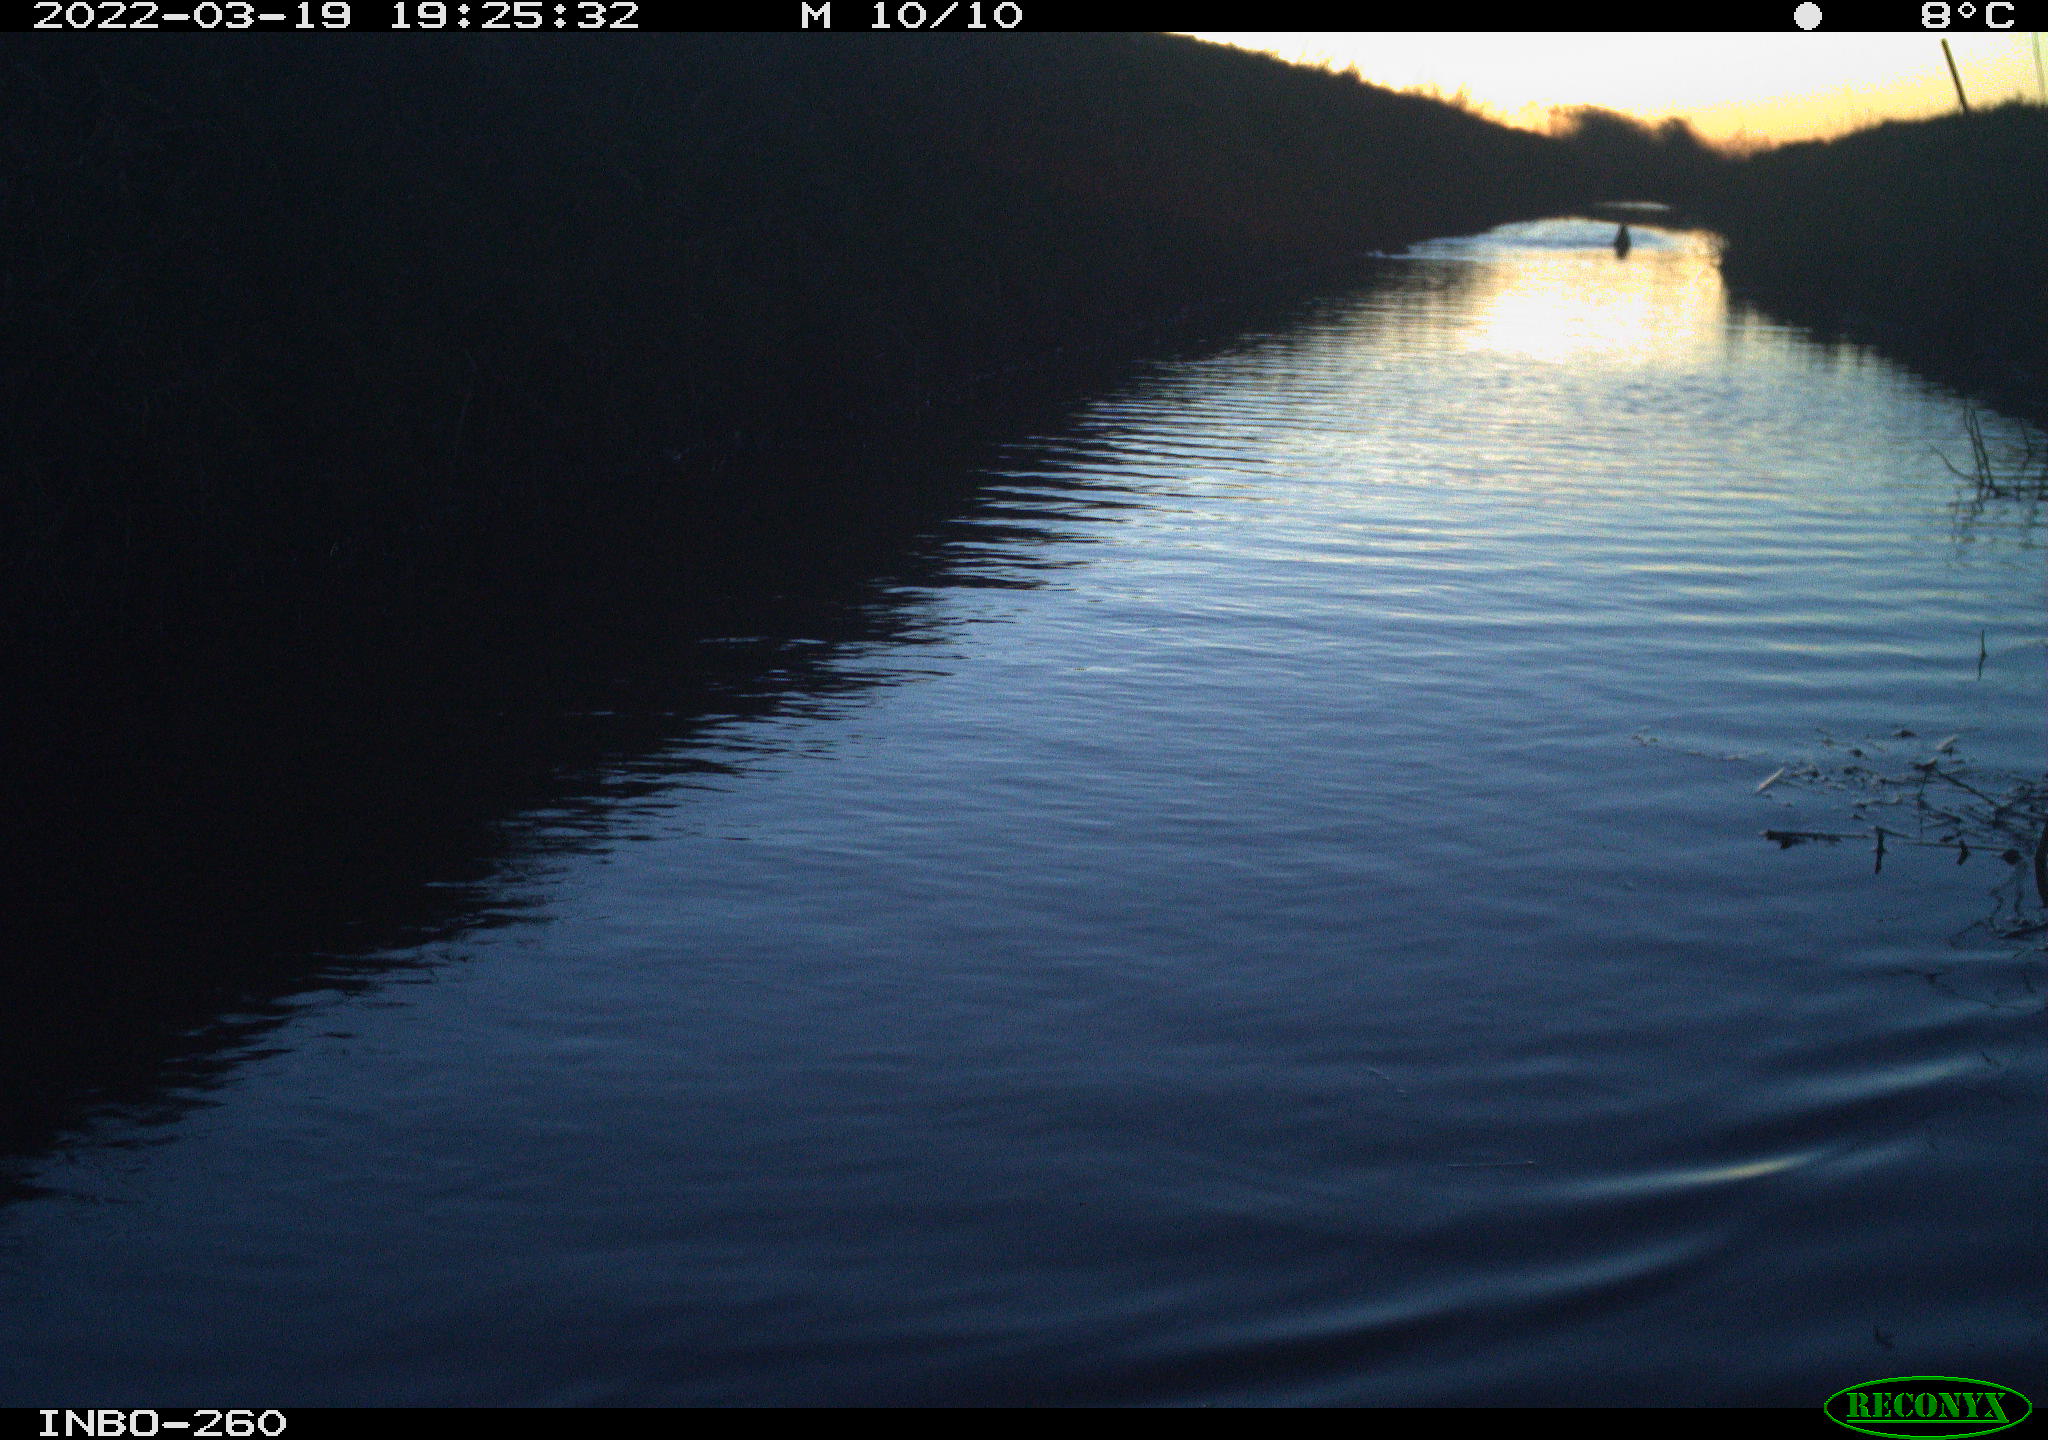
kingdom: Animalia
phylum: Chordata
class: Aves
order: Gruiformes
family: Rallidae
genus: Fulica
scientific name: Fulica atra
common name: Eurasian coot
